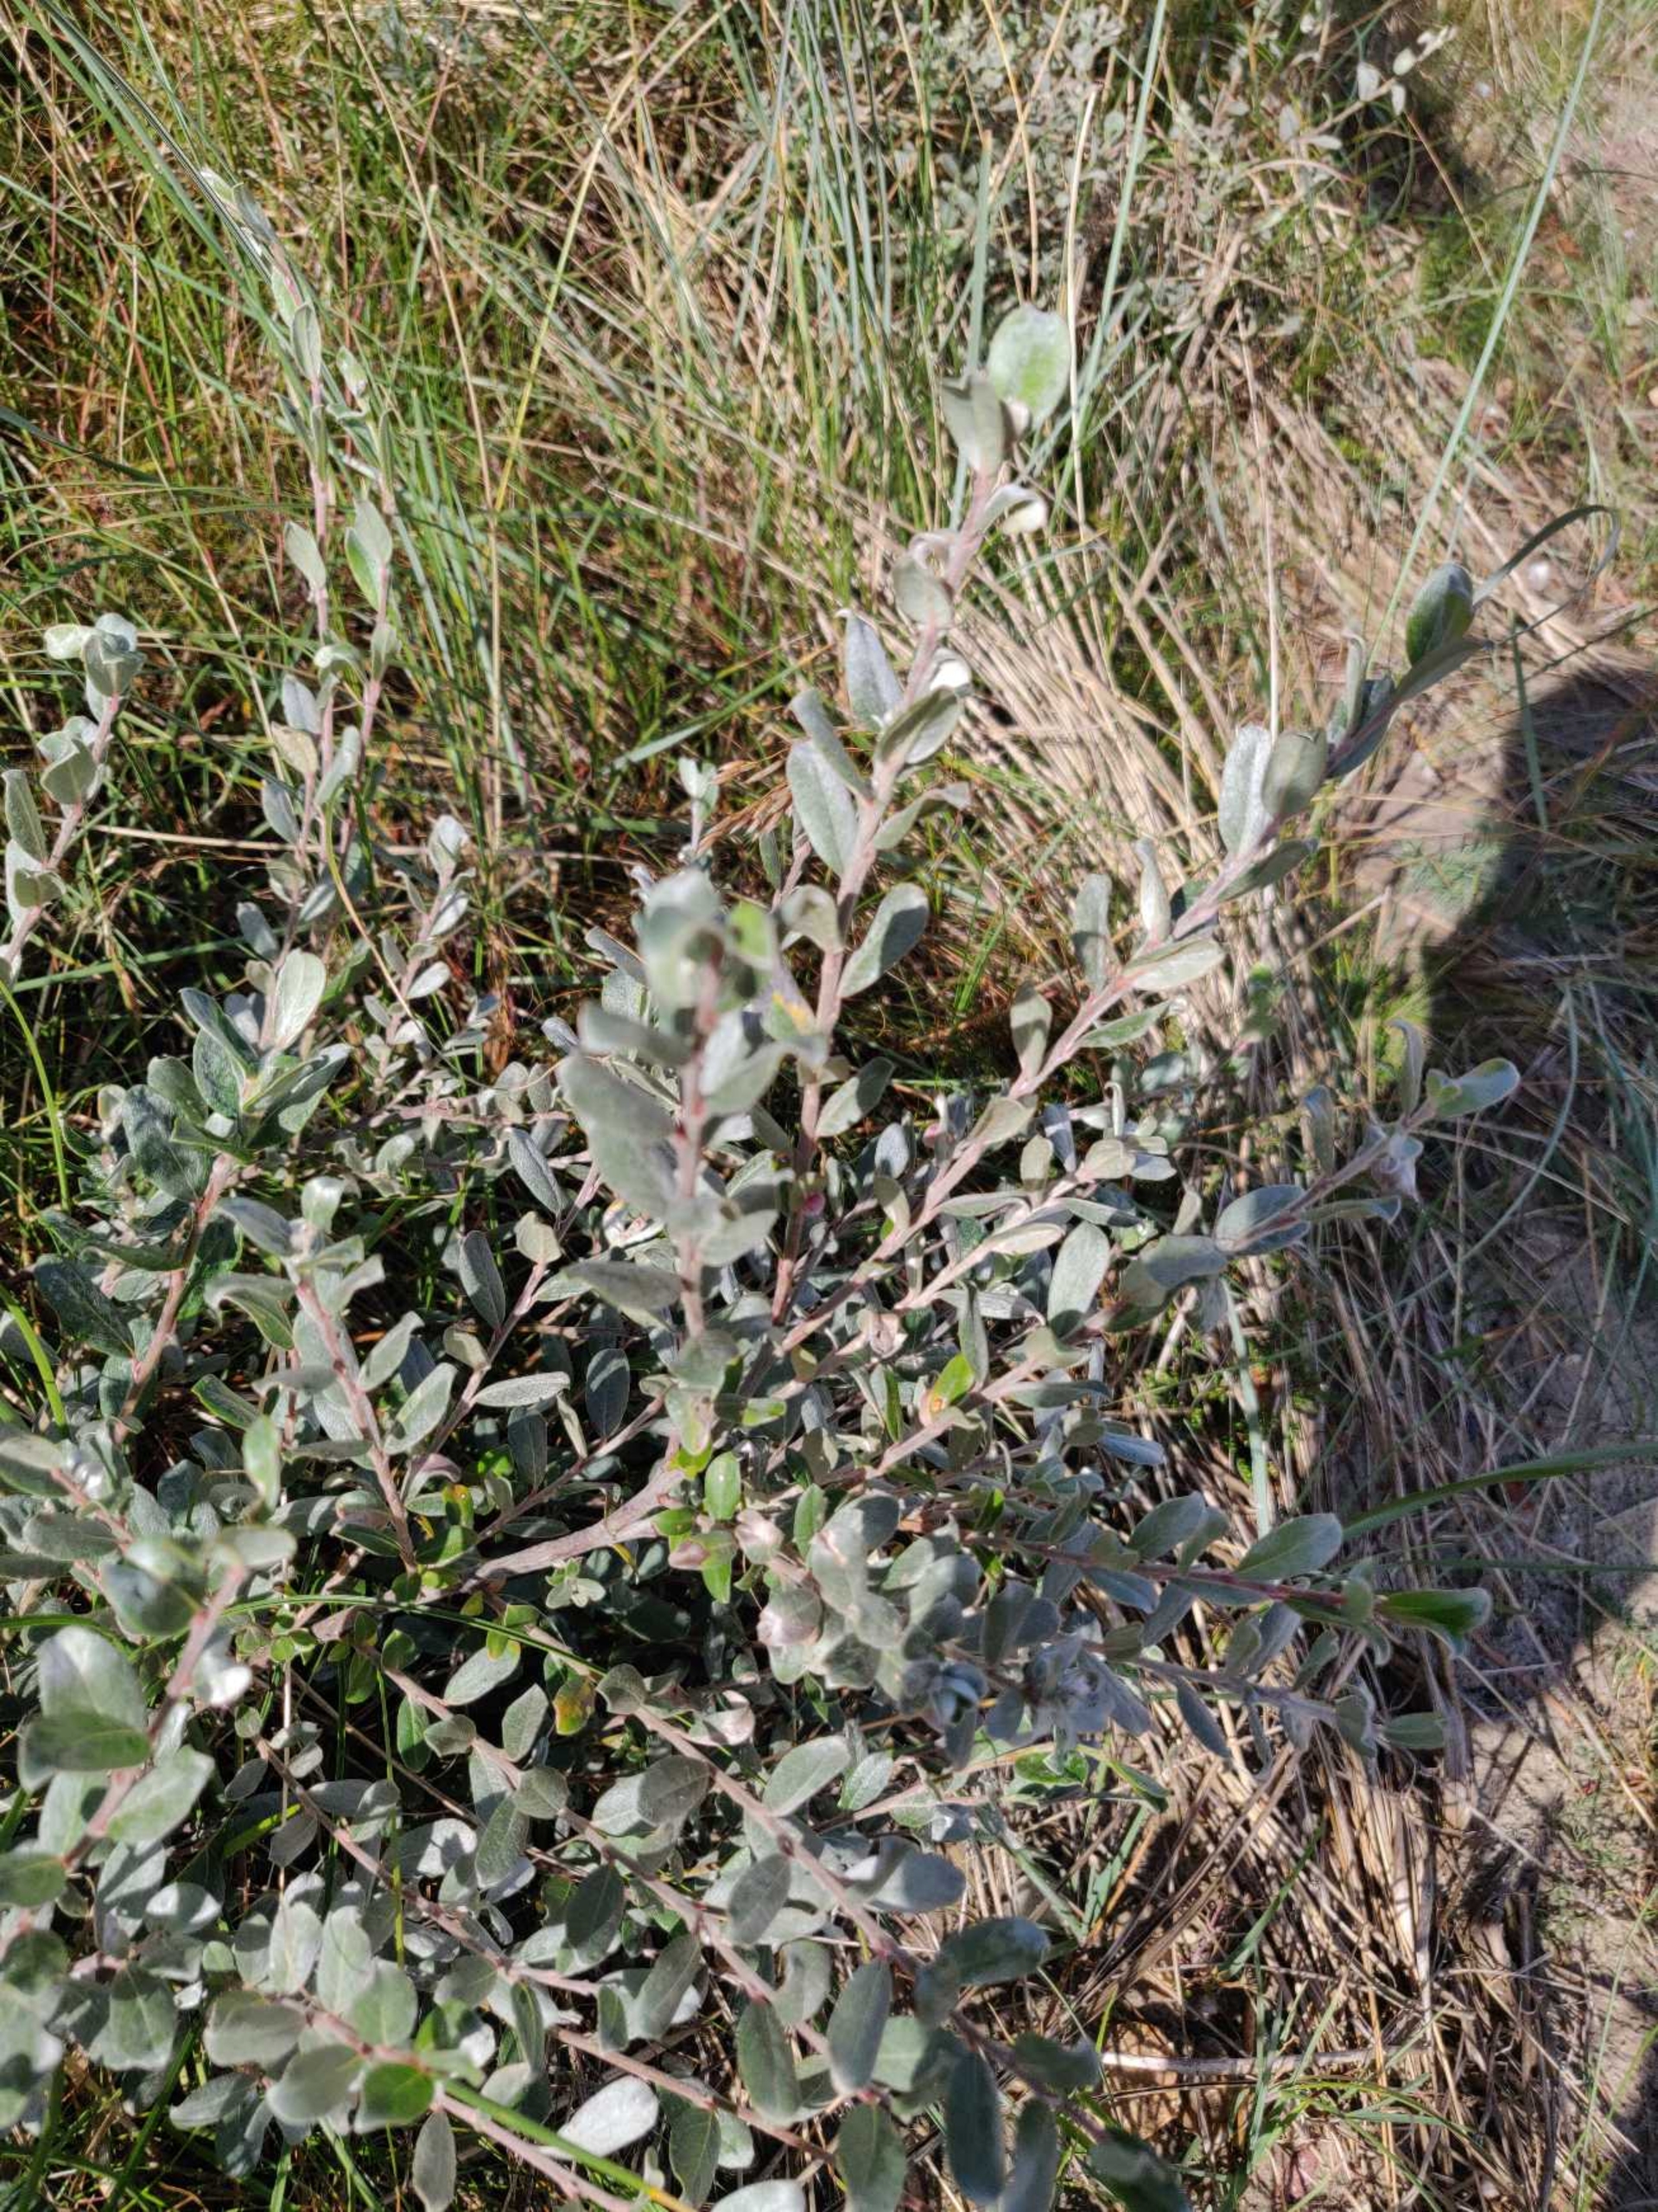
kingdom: Plantae
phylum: Tracheophyta
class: Magnoliopsida
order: Malpighiales
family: Salicaceae
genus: Salix
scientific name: Salix repens
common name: Gråris
